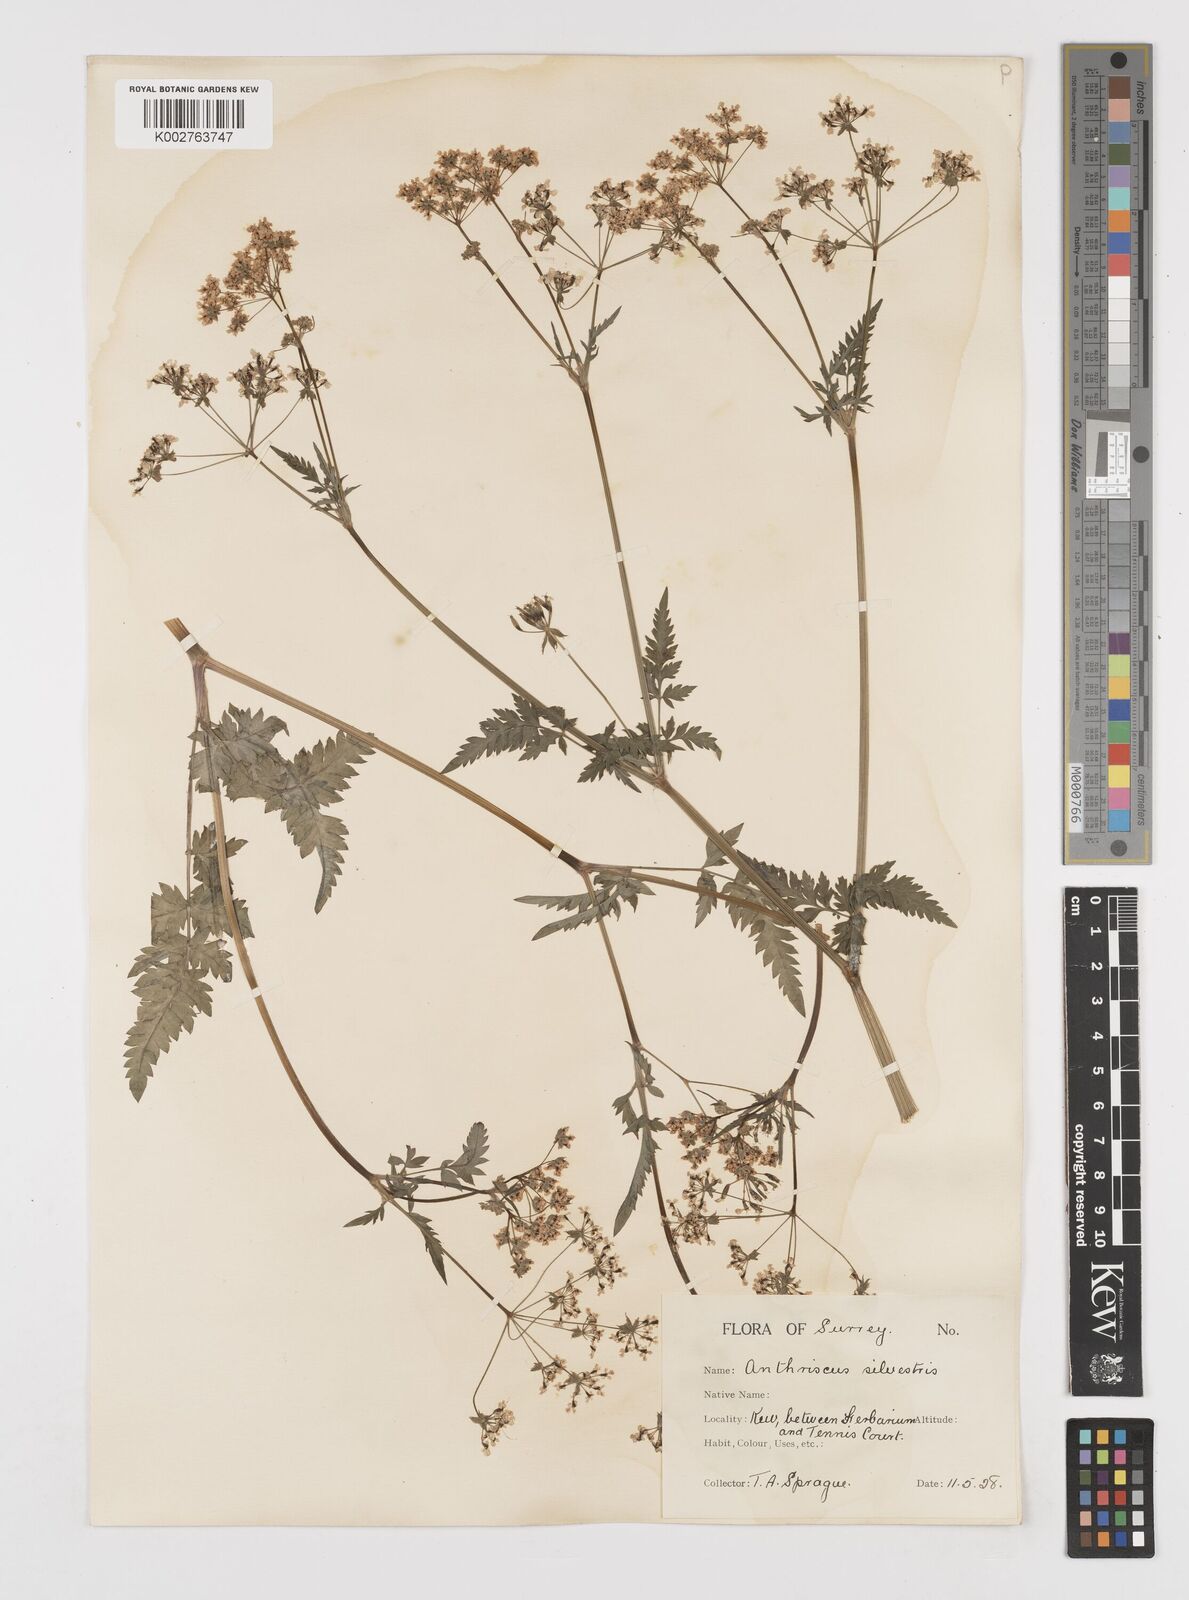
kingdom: Plantae
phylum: Tracheophyta
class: Magnoliopsida
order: Apiales
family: Apiaceae
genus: Anthriscus
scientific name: Anthriscus sylvestris
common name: Cow parsley
